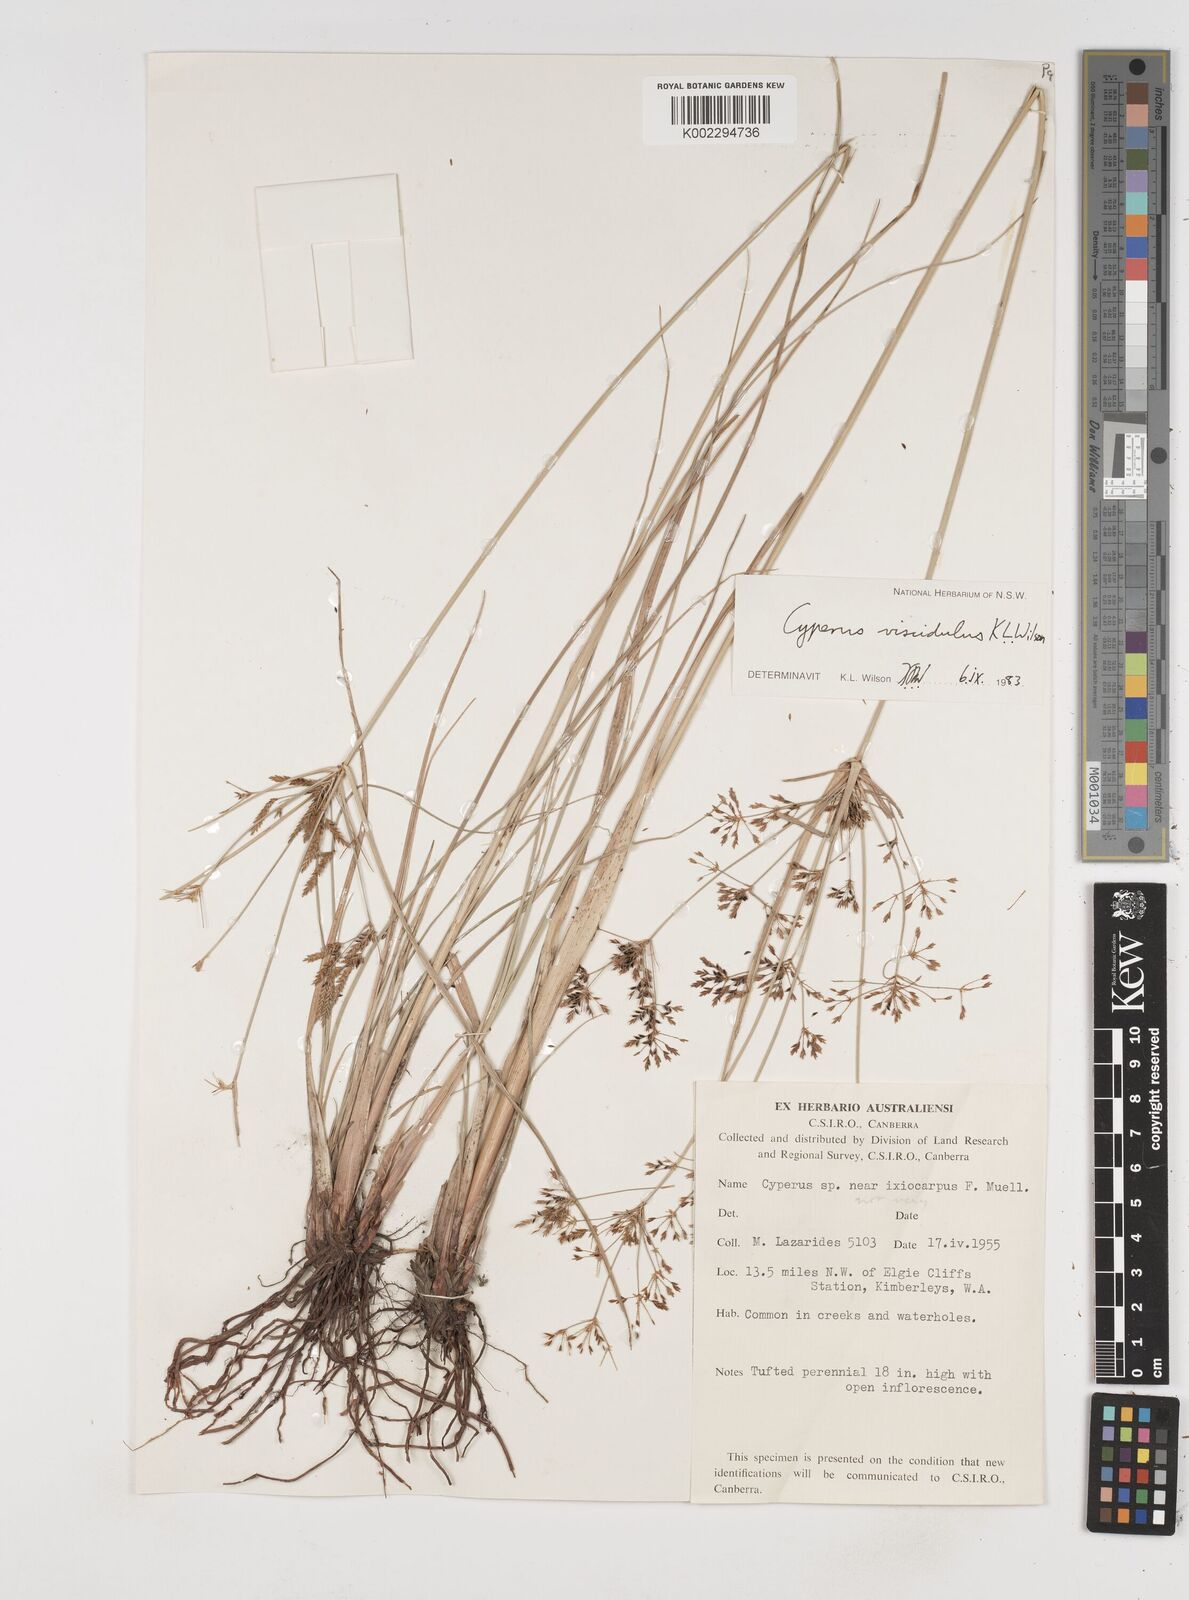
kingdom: Plantae
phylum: Tracheophyta
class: Liliopsida
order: Poales
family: Cyperaceae
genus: Cyperus
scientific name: Cyperus viscidulus
